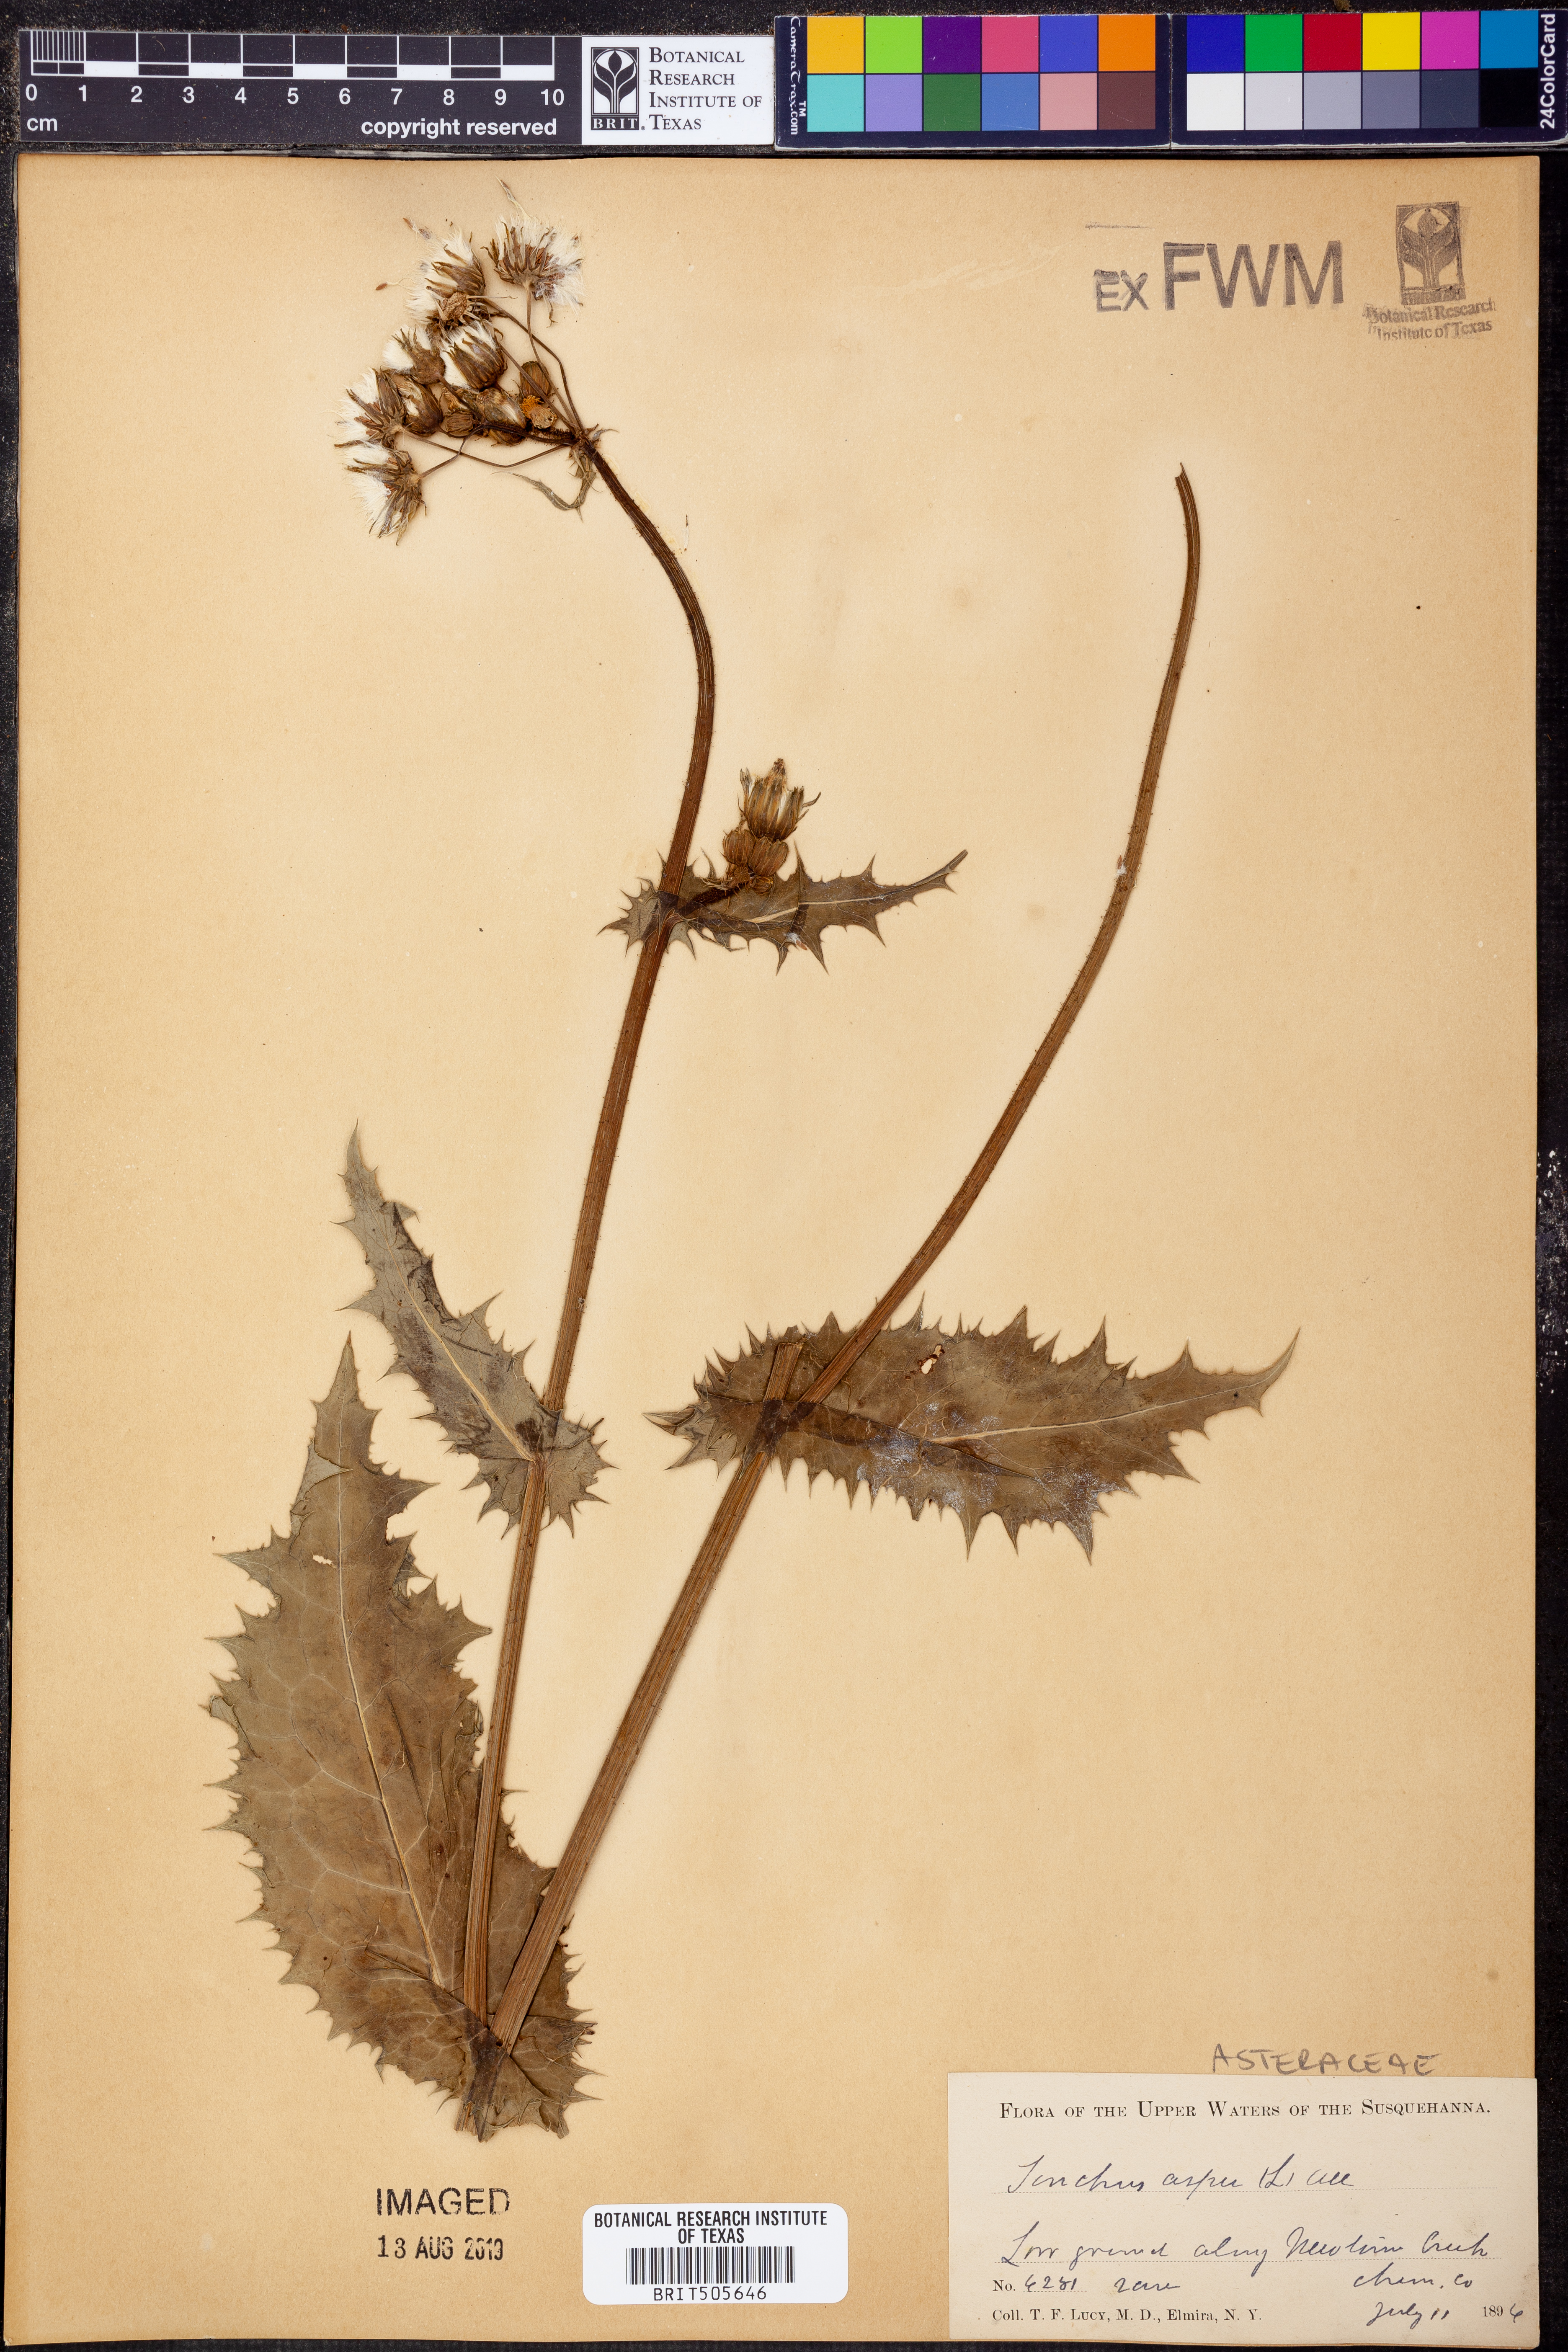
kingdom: Plantae
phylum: Tracheophyta
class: Magnoliopsida
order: Asterales
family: Asteraceae
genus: Sonchus
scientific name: Sonchus asper
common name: Prickly sow-thistle
